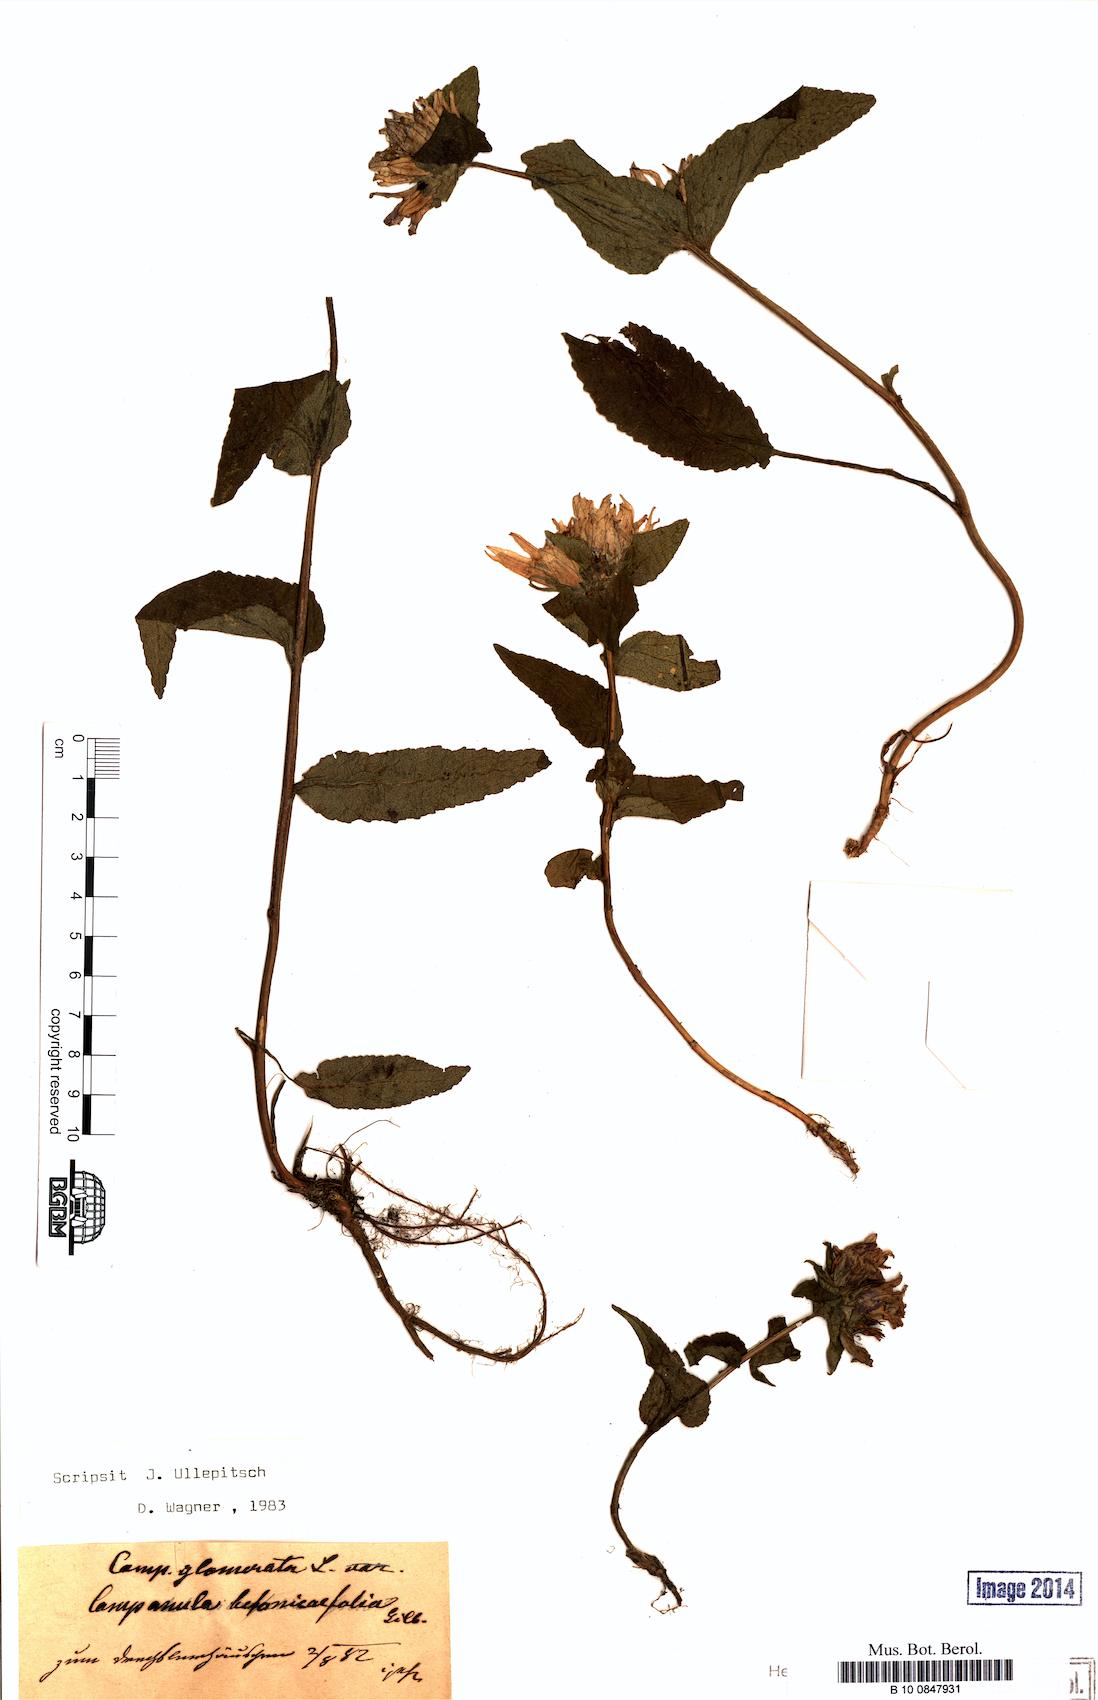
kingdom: Plantae
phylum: Tracheophyta
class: Magnoliopsida
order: Asterales
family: Campanulaceae
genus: Campanula
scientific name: Campanula glomerata
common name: Clustered bellflower
